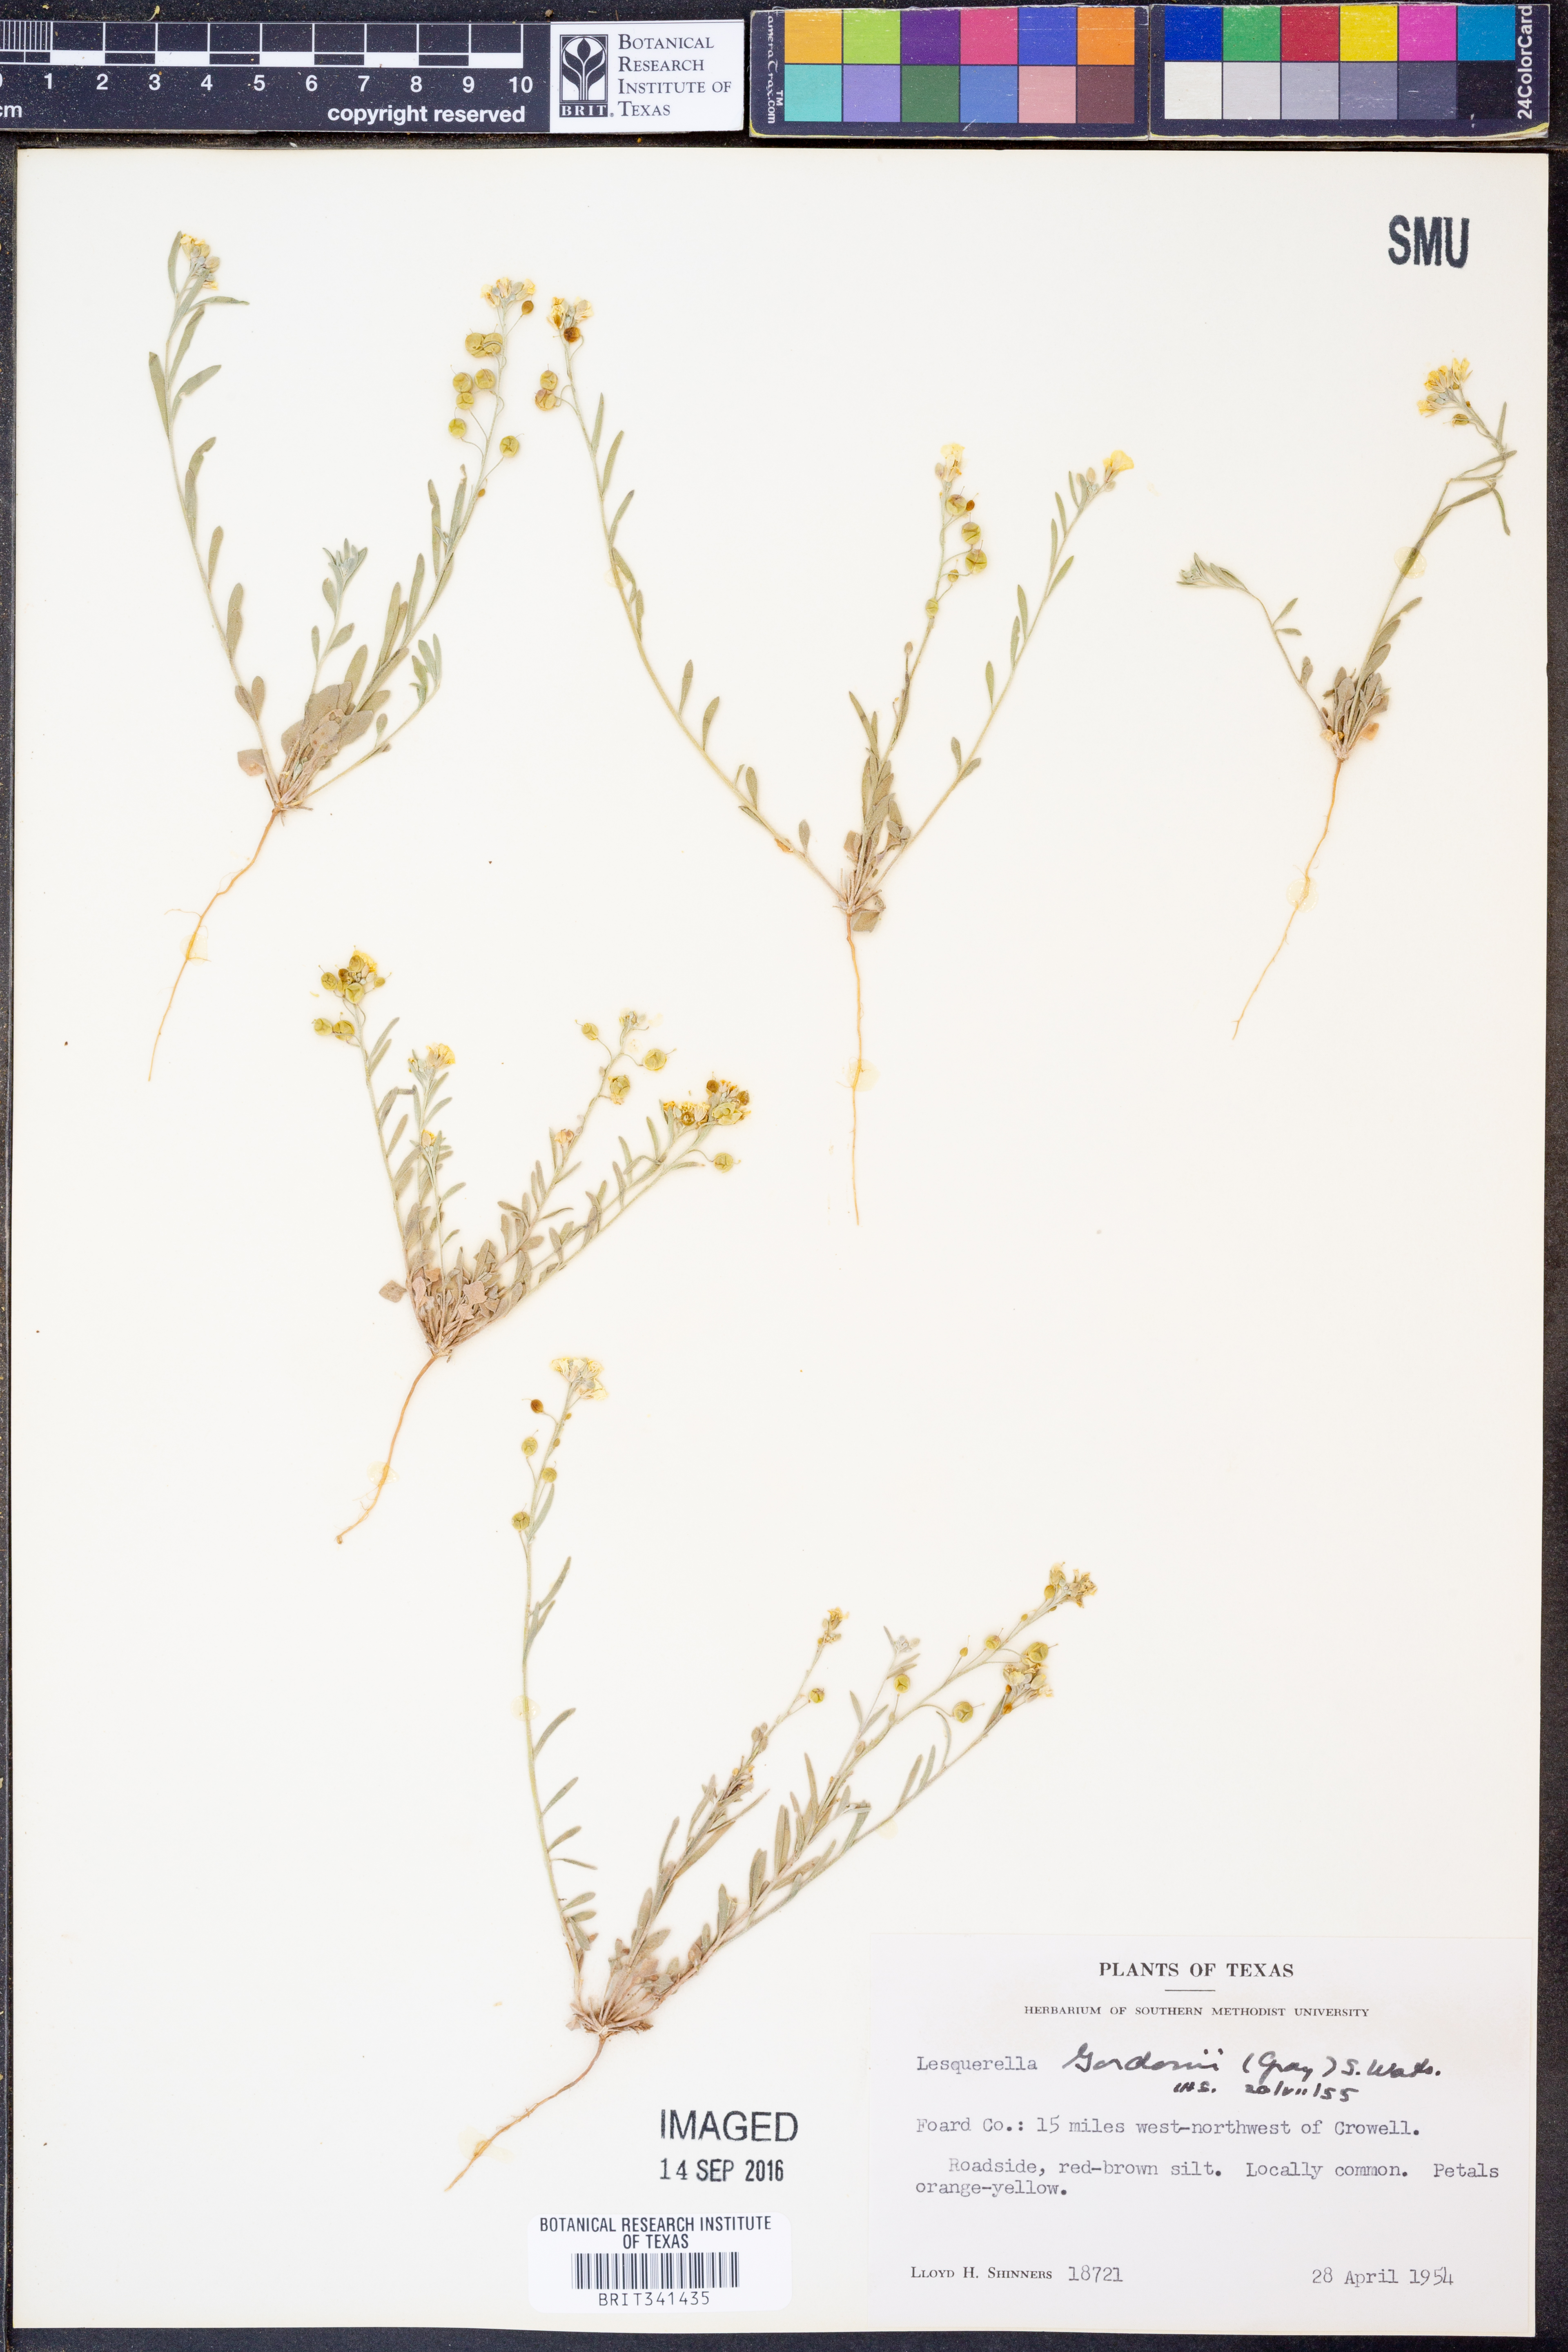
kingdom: Plantae
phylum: Tracheophyta
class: Magnoliopsida
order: Brassicales
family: Brassicaceae
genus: Physaria
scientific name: Physaria gordonii
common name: Gordon's bladderpod
